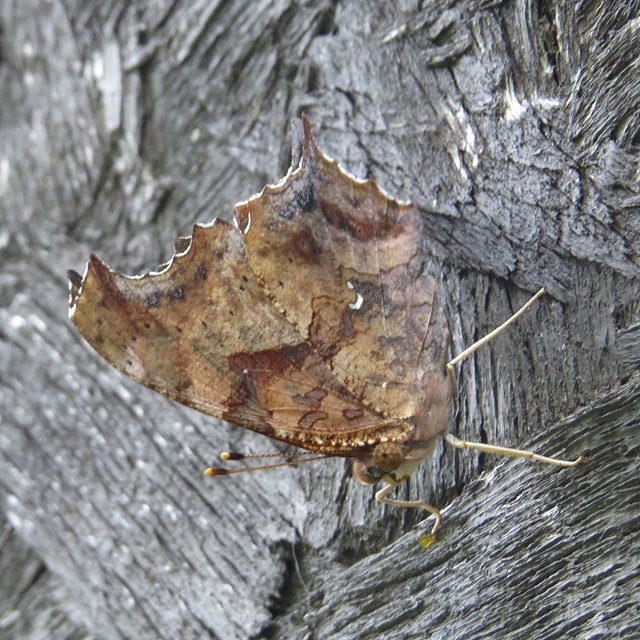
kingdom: Animalia
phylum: Arthropoda
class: Insecta
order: Lepidoptera
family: Nymphalidae
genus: Polygonia
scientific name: Polygonia interrogationis
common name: Question Mark
